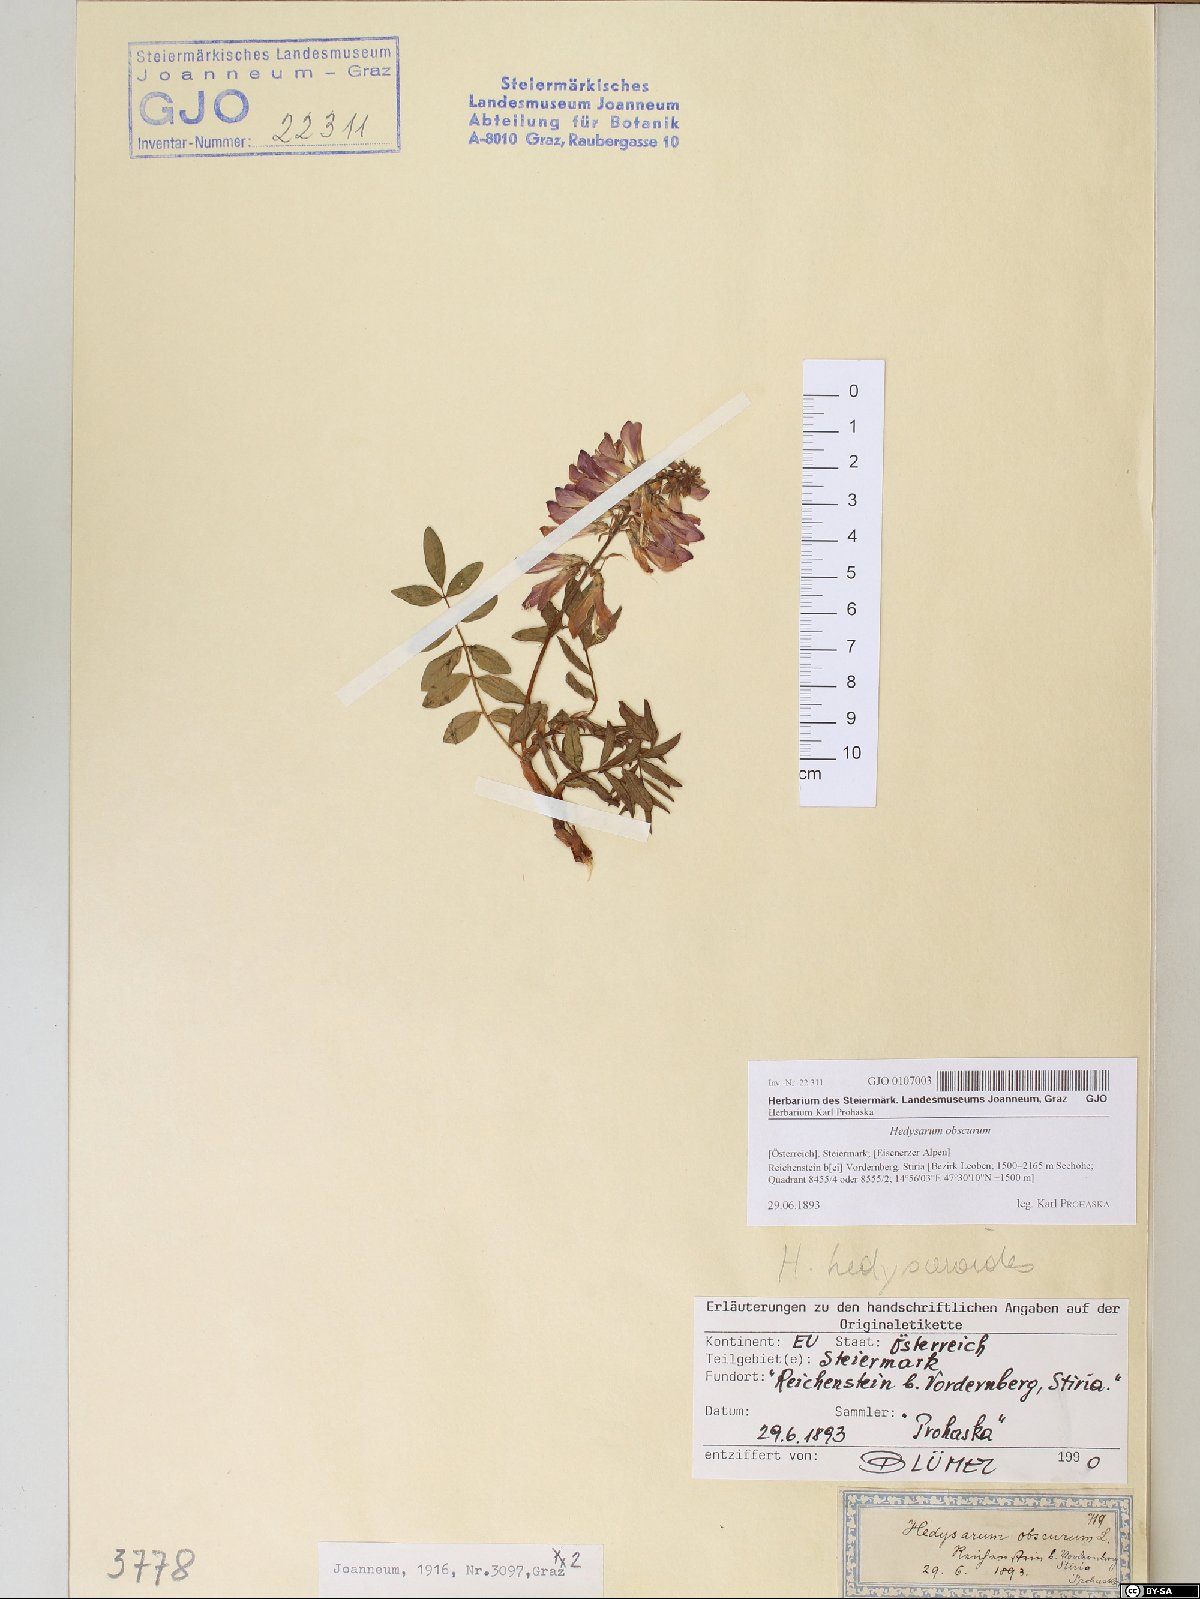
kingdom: Plantae
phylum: Tracheophyta
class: Magnoliopsida
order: Fabales
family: Fabaceae
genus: Hedysarum
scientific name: Hedysarum hedysaroides
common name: Alpine french-honeysuckle
